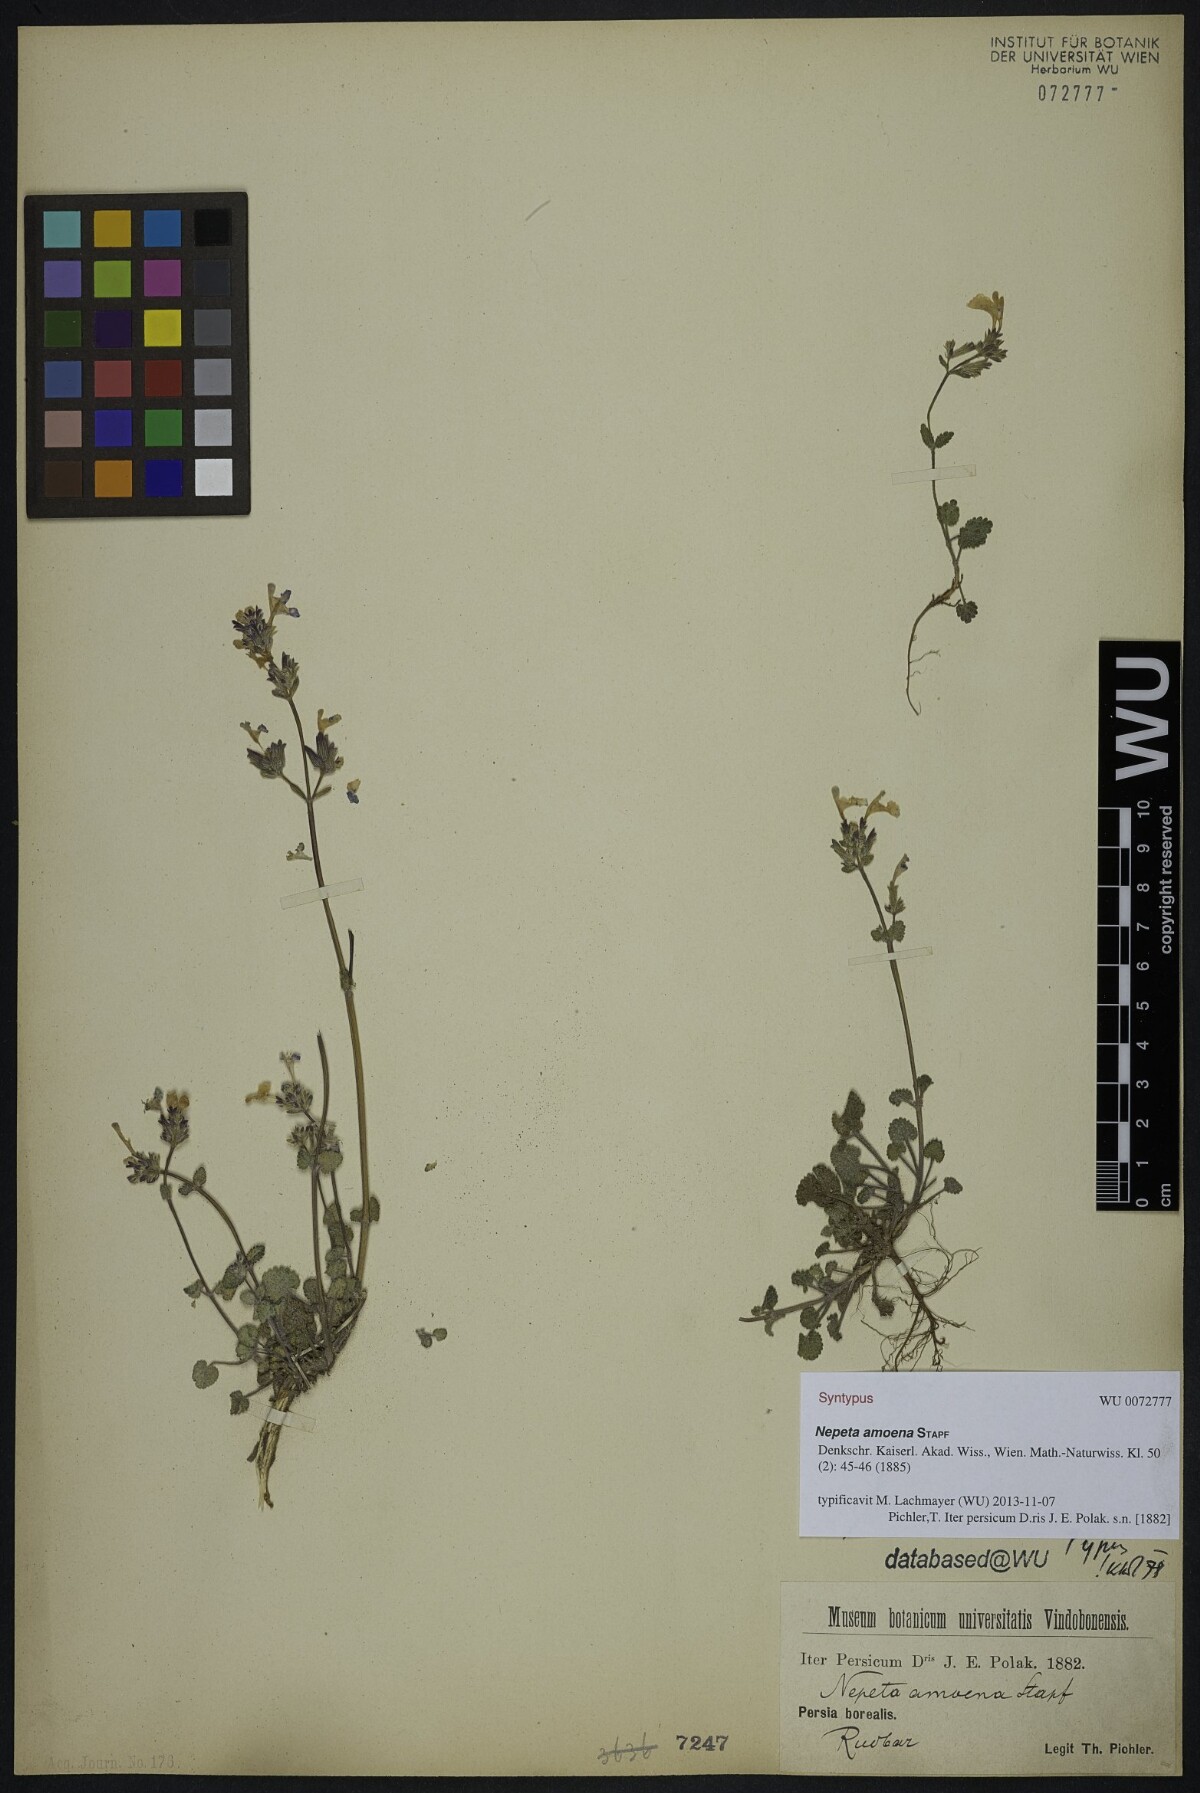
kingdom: Plantae
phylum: Tracheophyta
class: Magnoliopsida
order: Lamiales
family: Lamiaceae
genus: Nepeta
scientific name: Nepeta amoena
